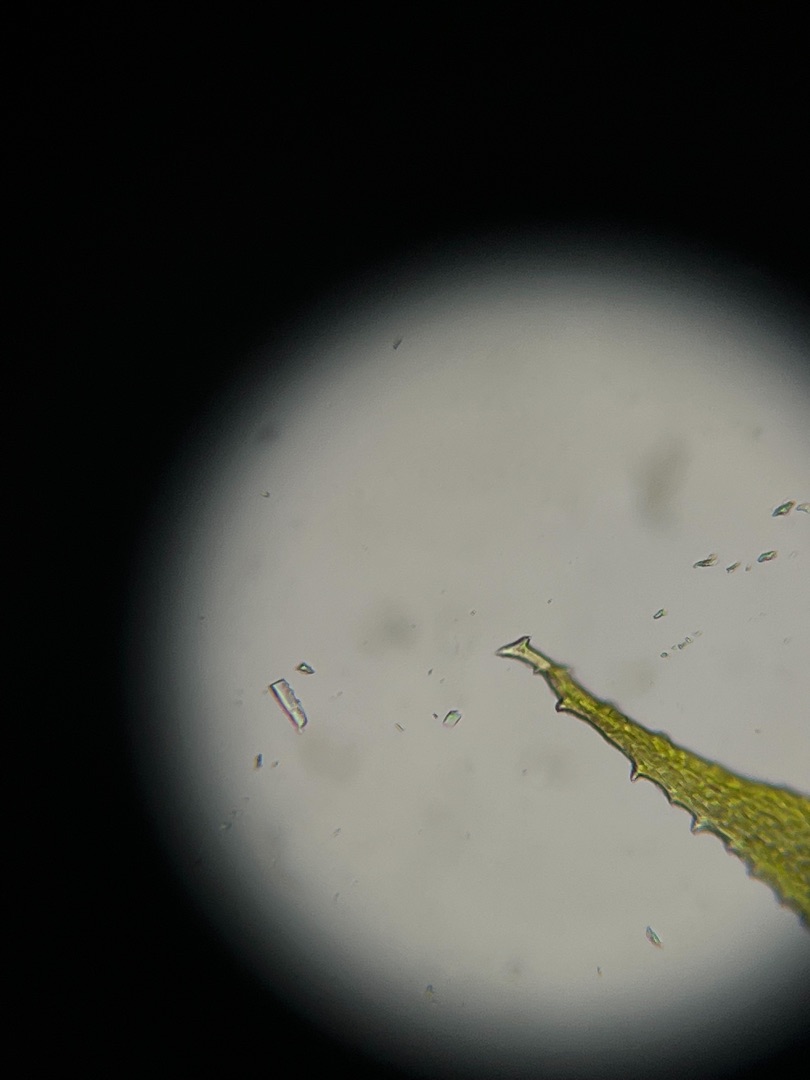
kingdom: Plantae
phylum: Bryophyta
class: Bryopsida
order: Hypnales
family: Antitrichiaceae
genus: Antitrichia
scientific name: Antitrichia curtipendula
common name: Åben krogtand
